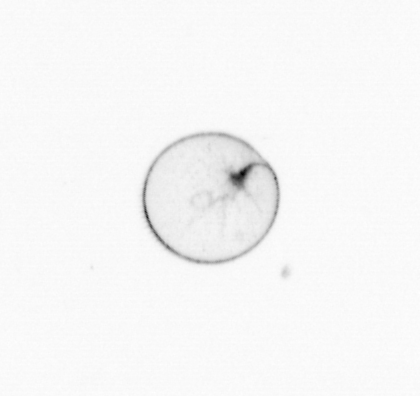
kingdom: Chromista
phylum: Myzozoa
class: Dinophyceae
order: Noctilucales
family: Noctilucaceae
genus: Noctiluca
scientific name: Noctiluca scintillans
